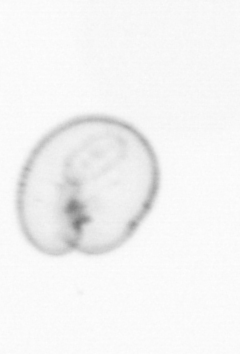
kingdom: Chromista
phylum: Myzozoa
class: Dinophyceae
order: Noctilucales
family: Noctilucaceae
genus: Noctiluca
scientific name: Noctiluca scintillans
